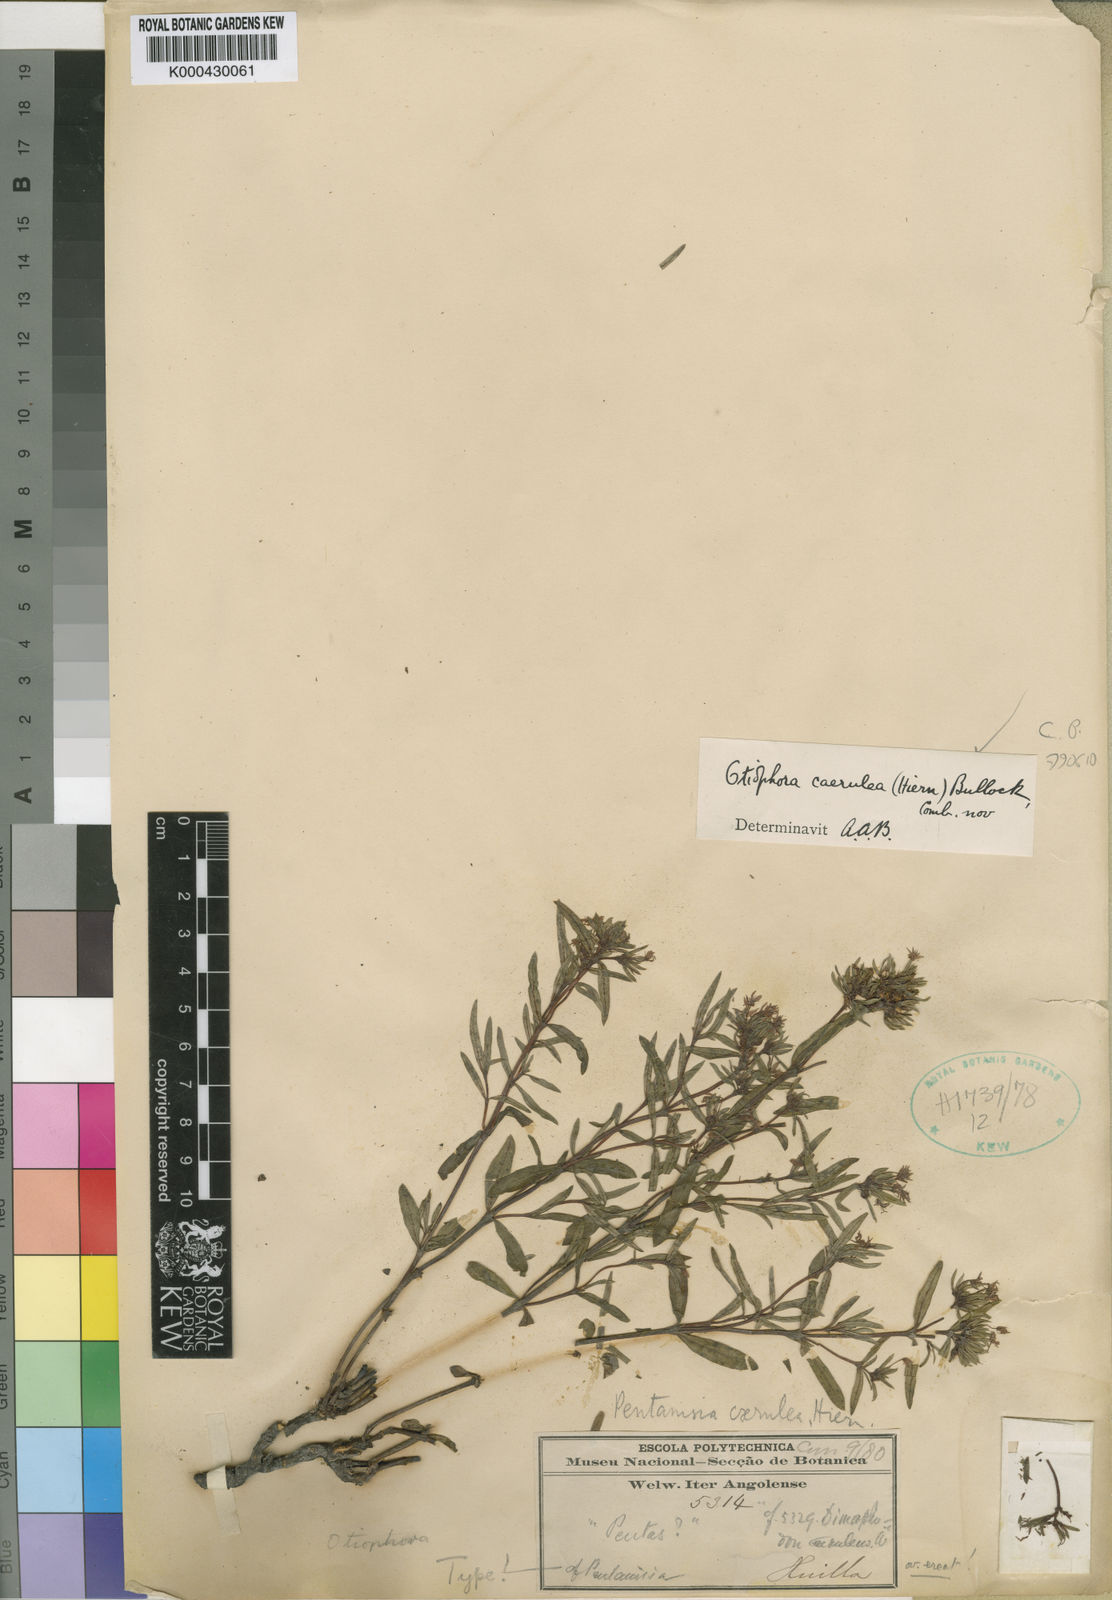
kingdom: Plantae
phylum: Tracheophyta
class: Magnoliopsida
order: Gentianales
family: Rubiaceae
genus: Otiophora
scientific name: Otiophora caerulea
